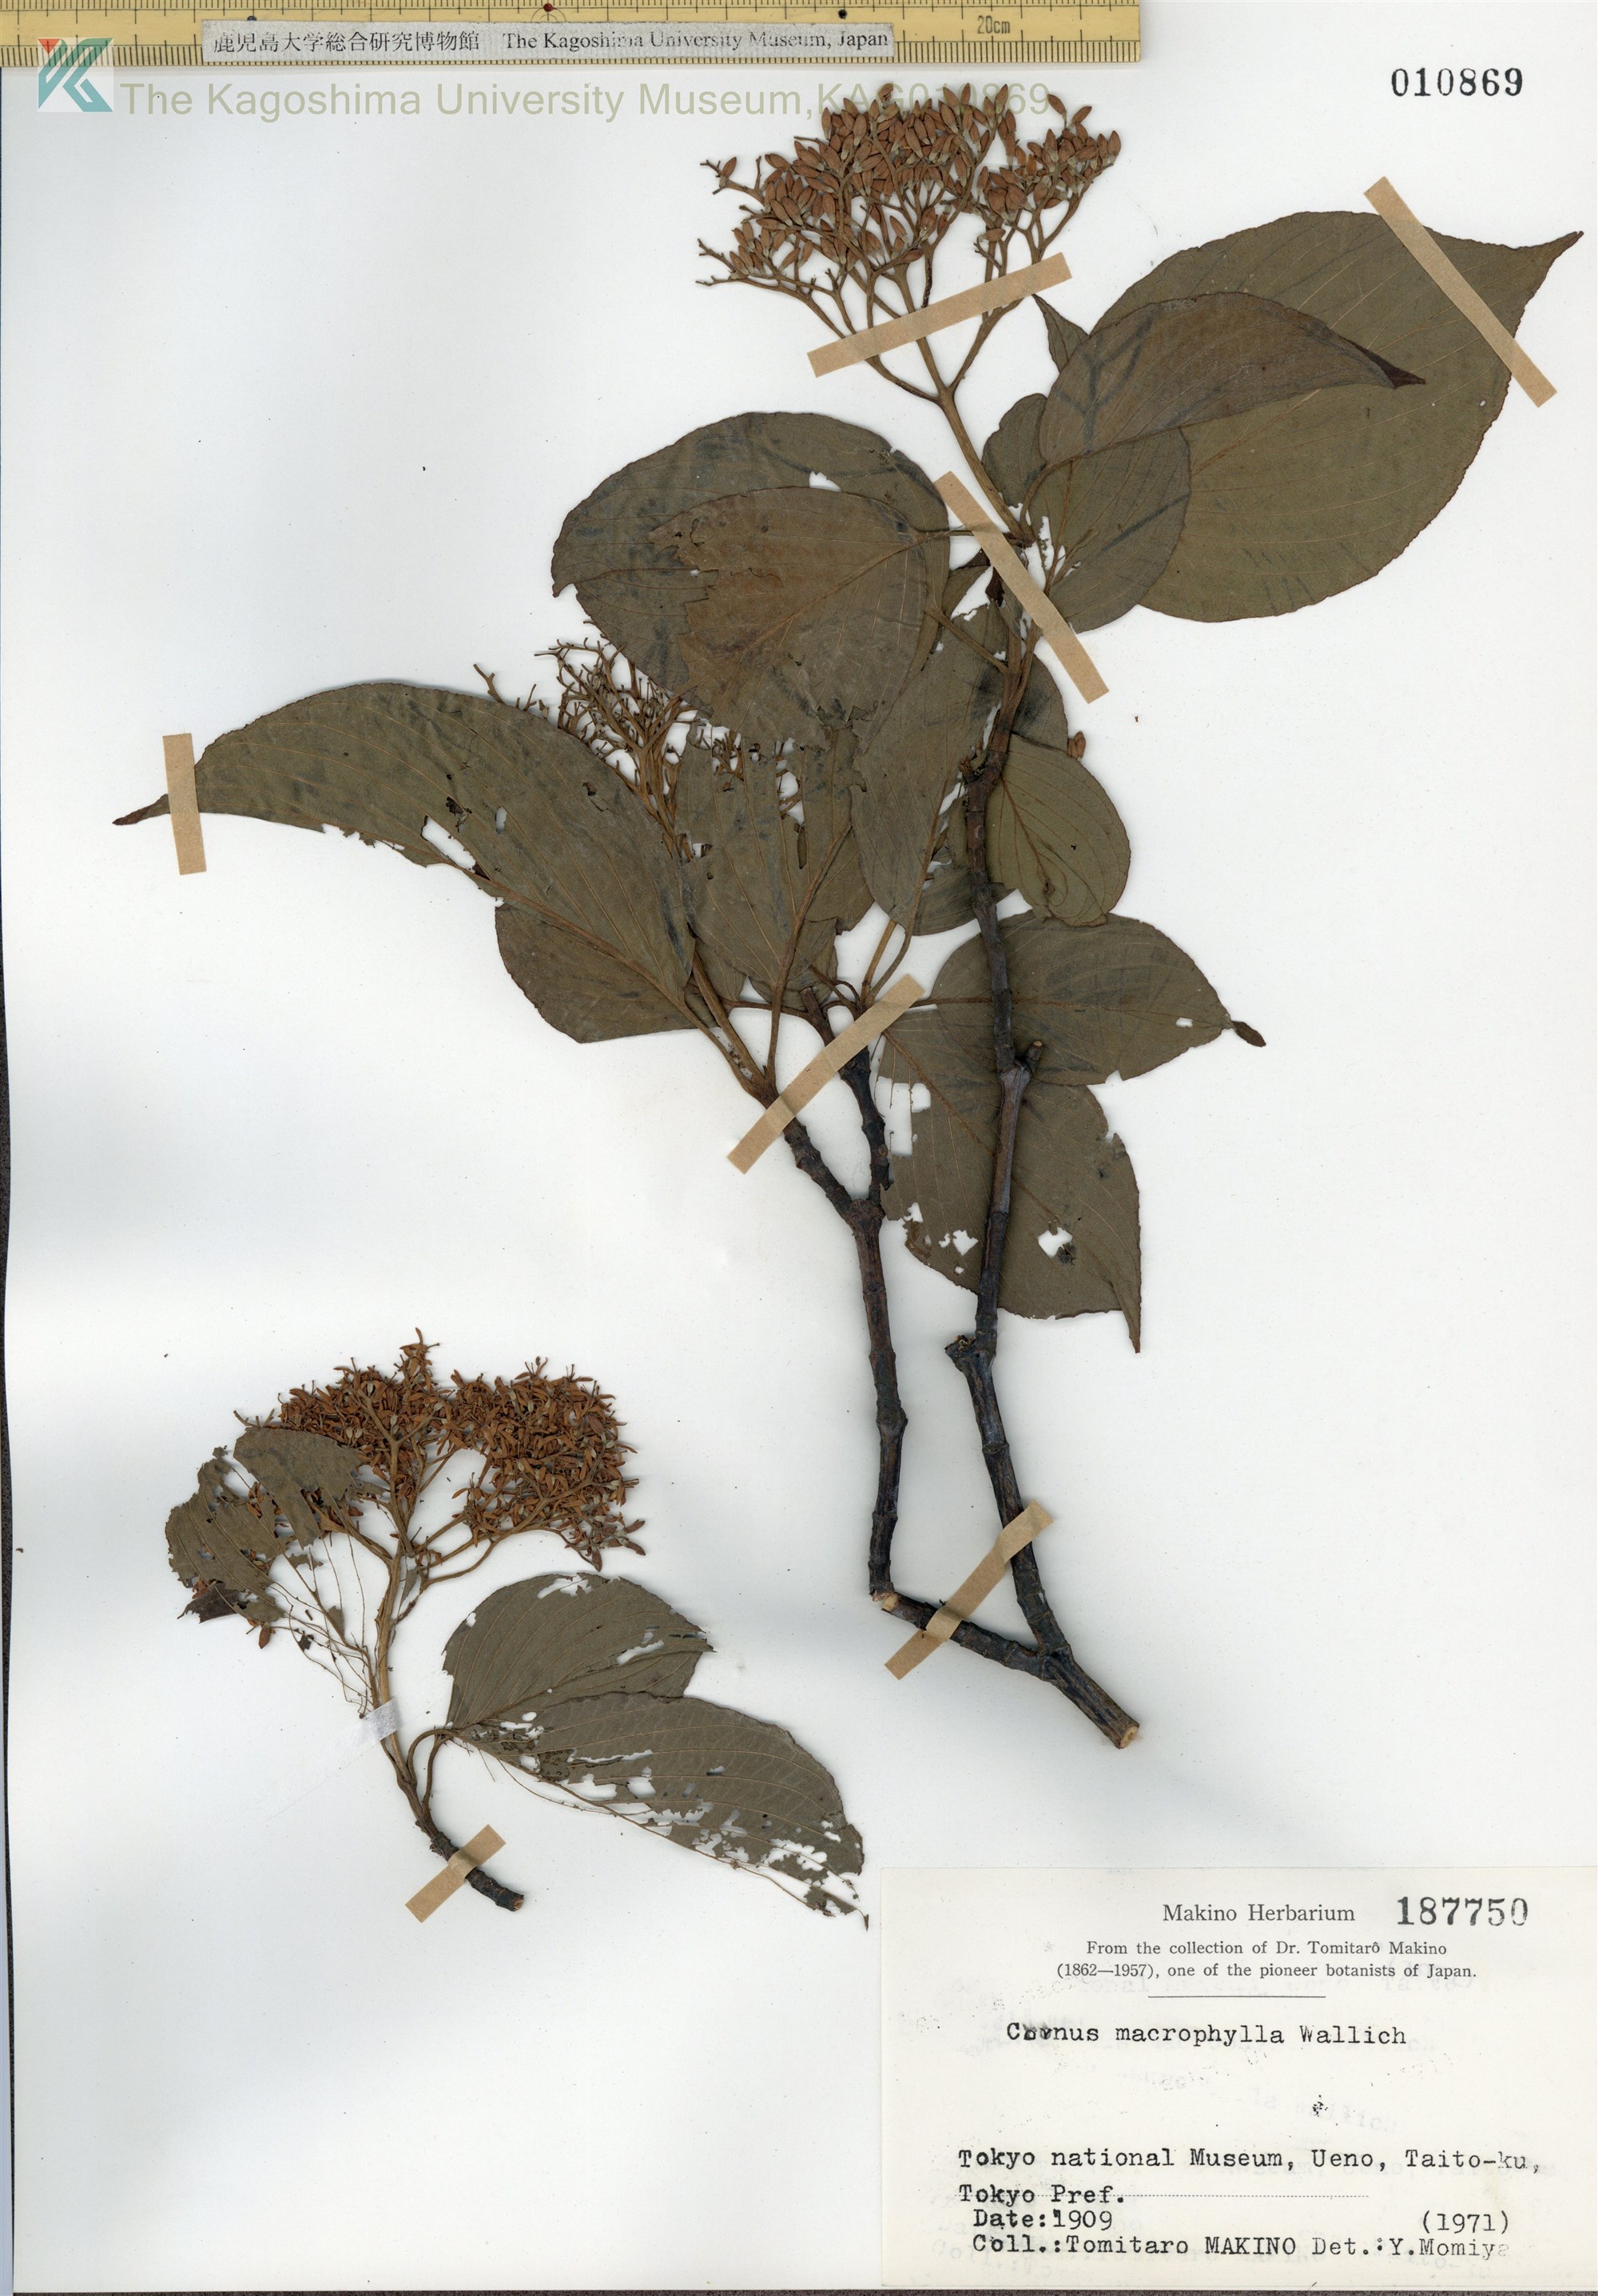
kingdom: Plantae
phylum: Tracheophyta
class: Magnoliopsida
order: Cornales
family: Cornaceae
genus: Cornus
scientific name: Cornus macrophylla
